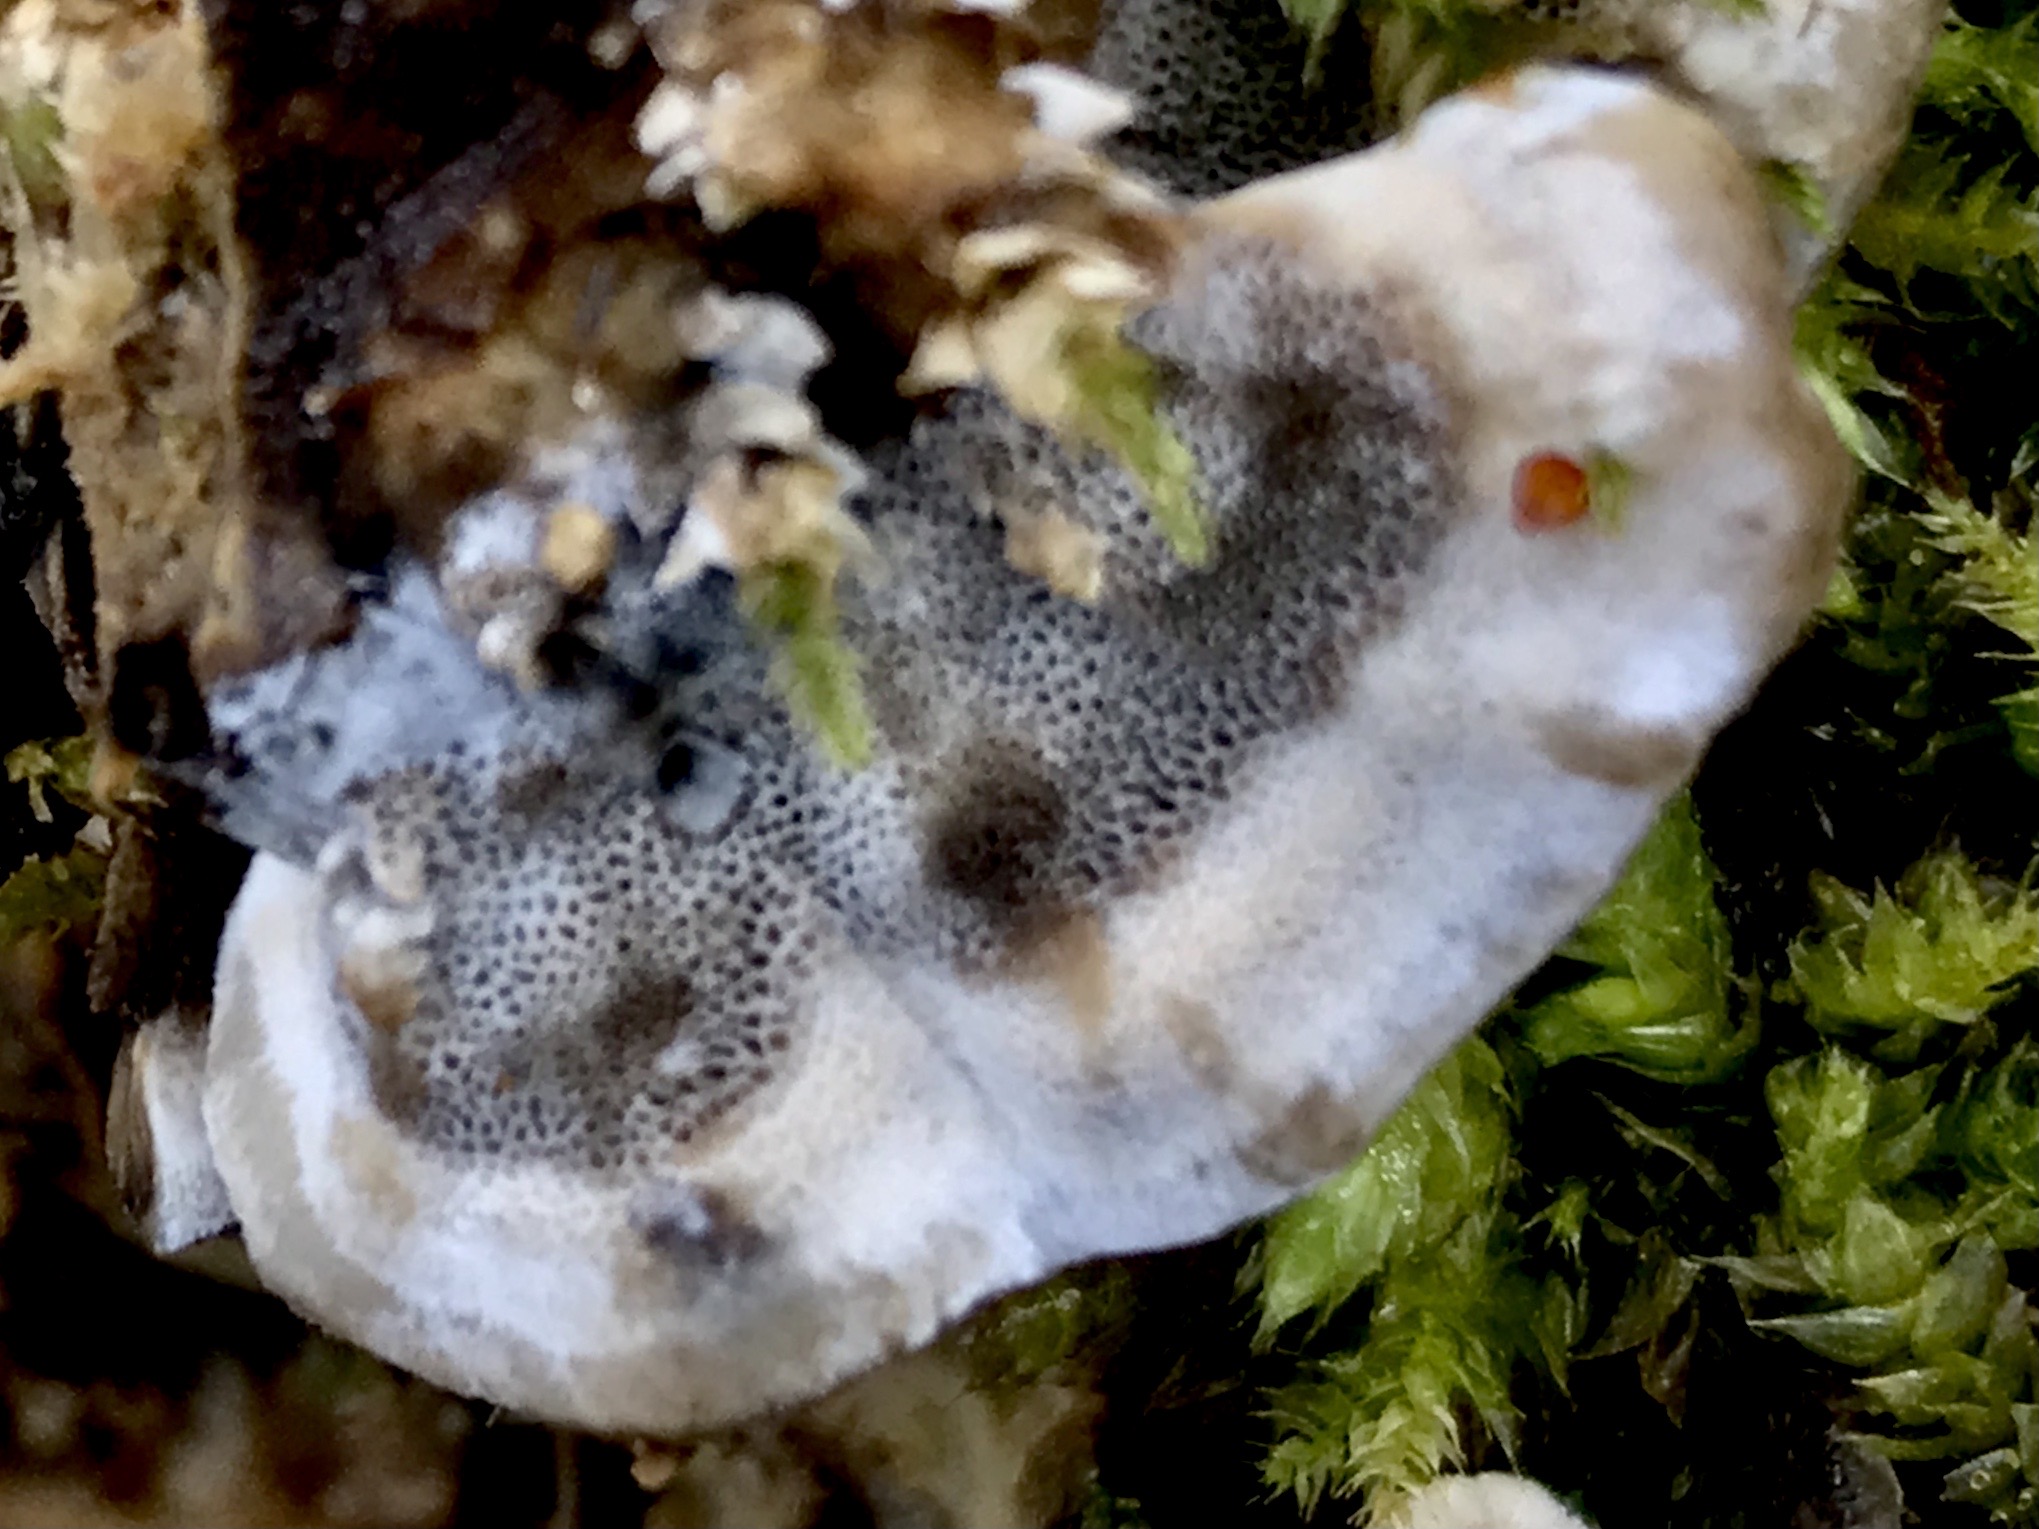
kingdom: Fungi
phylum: Basidiomycota
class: Agaricomycetes
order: Polyporales
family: Phanerochaetaceae
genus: Bjerkandera
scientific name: Bjerkandera adusta
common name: sveden sodporesvamp
